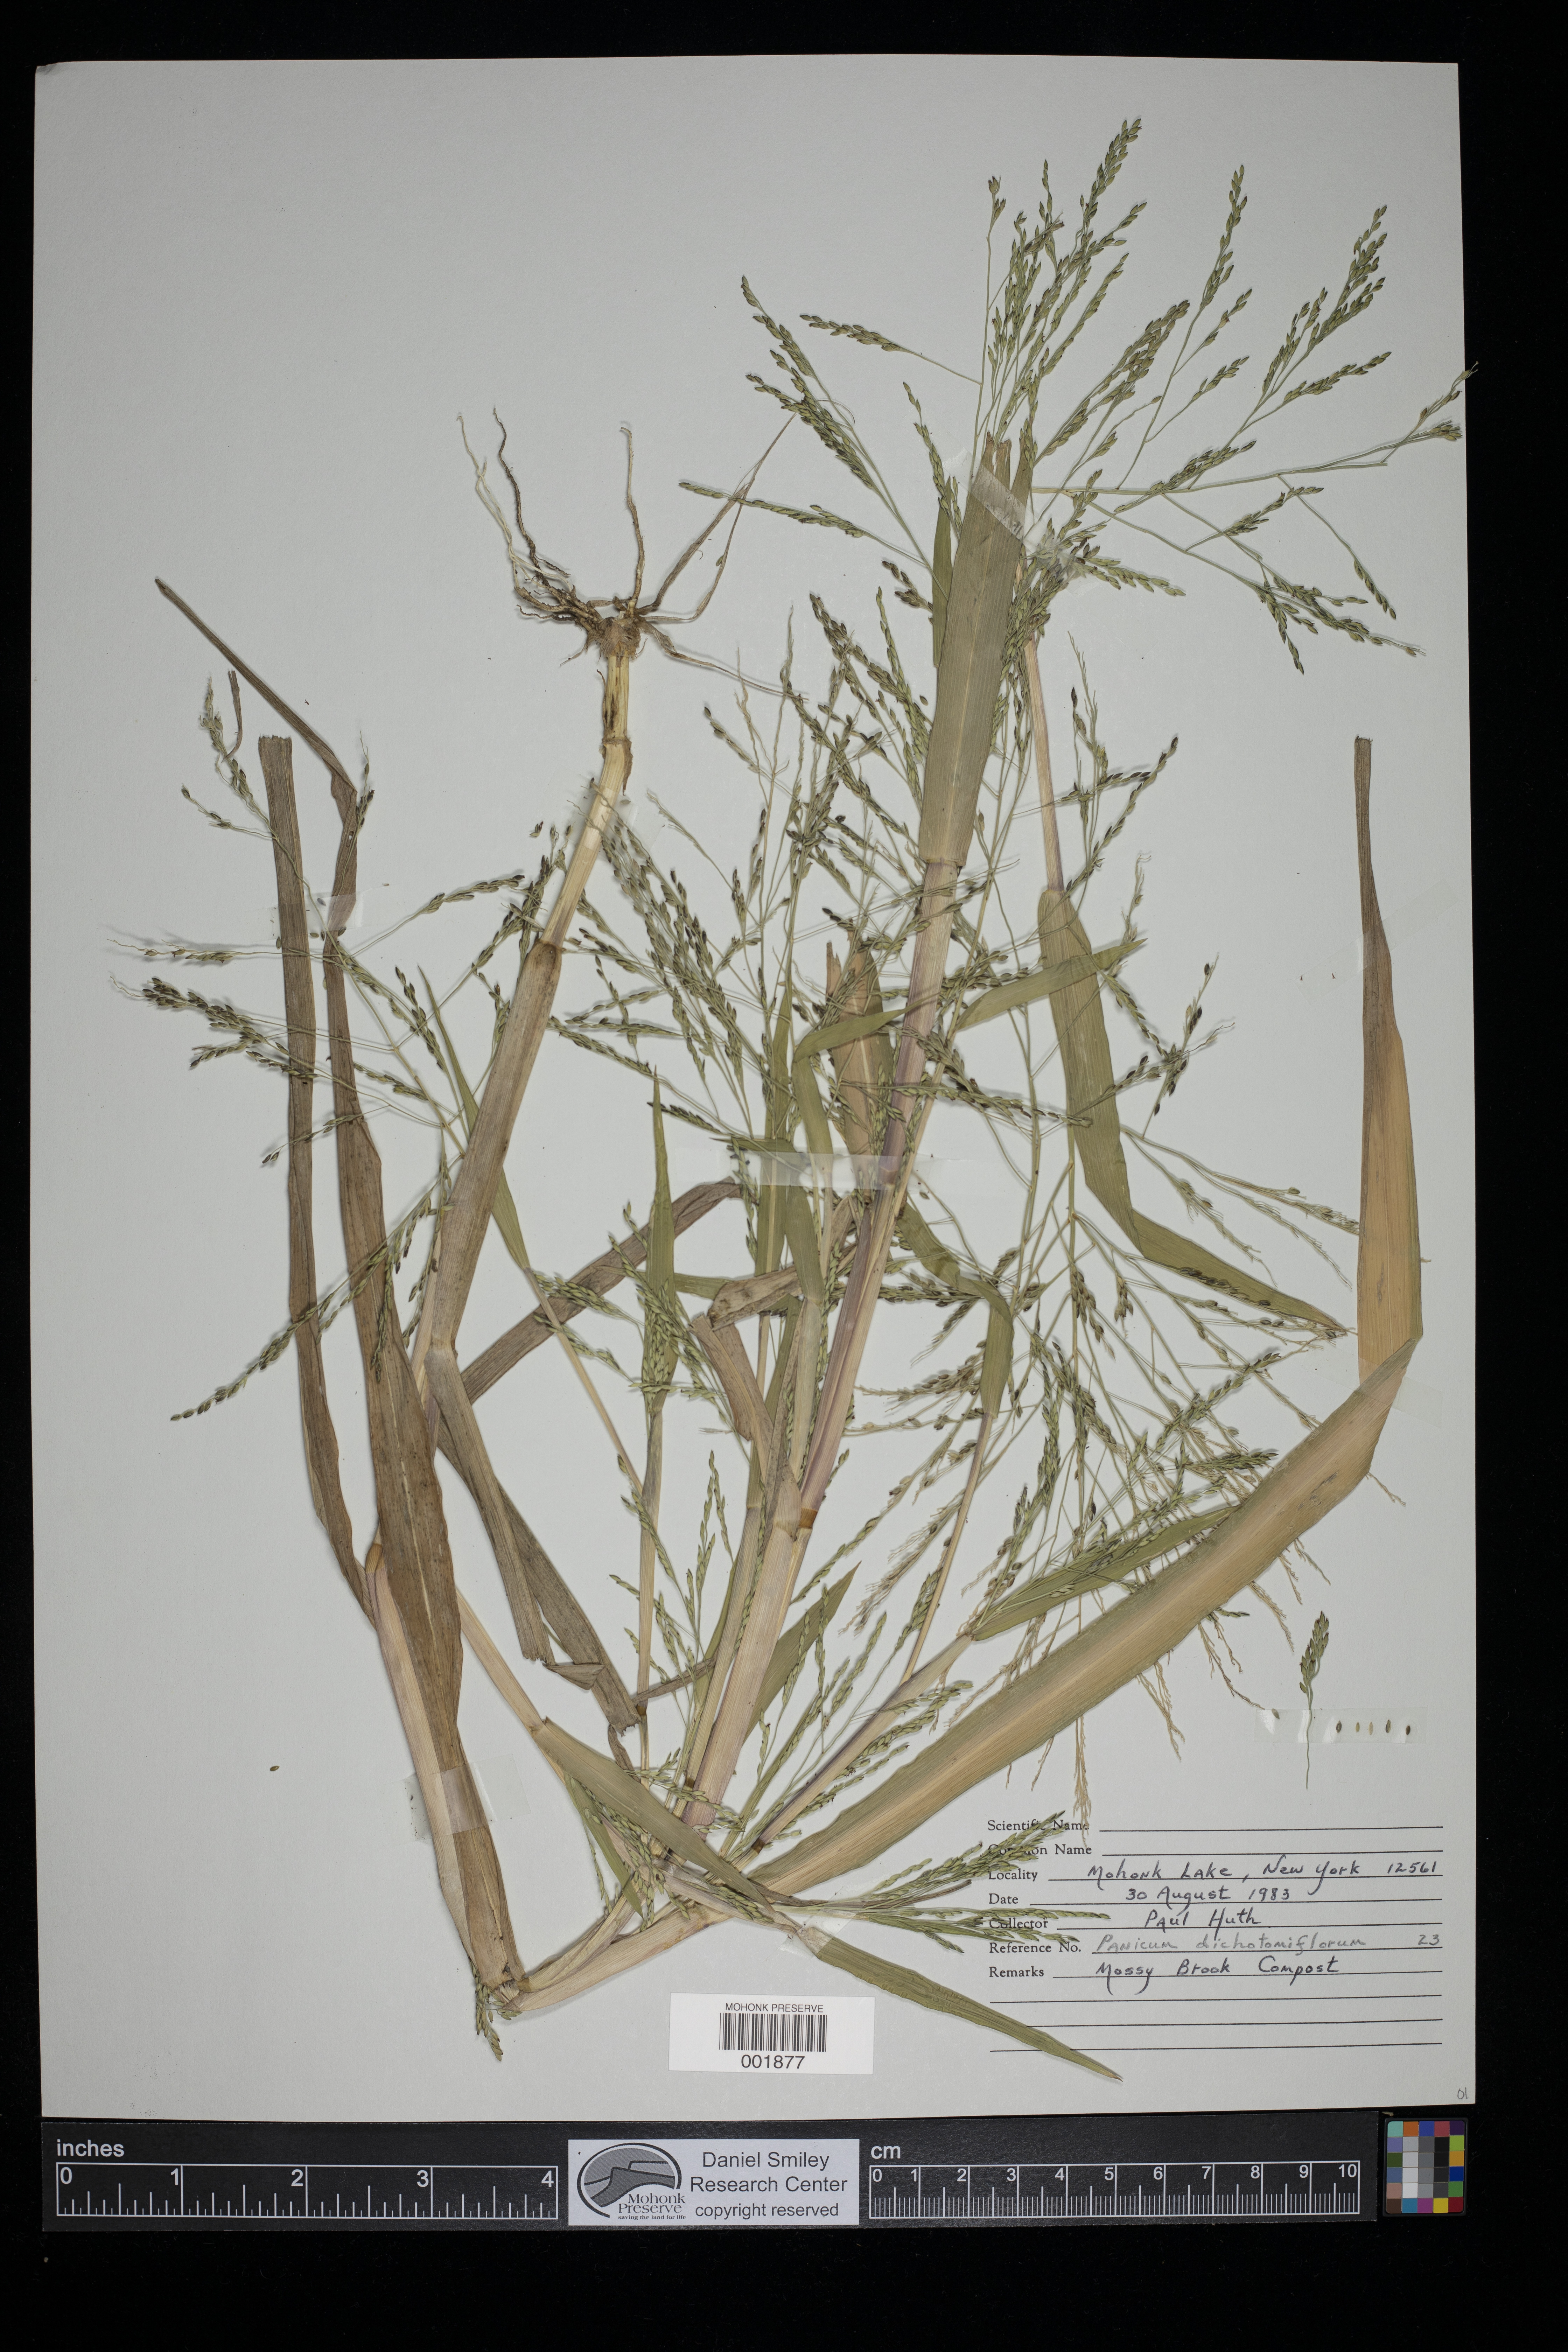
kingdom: Plantae
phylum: Tracheophyta
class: Liliopsida
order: Poales
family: Poaceae
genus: Panicum
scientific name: Panicum dichotomiflorum
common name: Autumn millet
